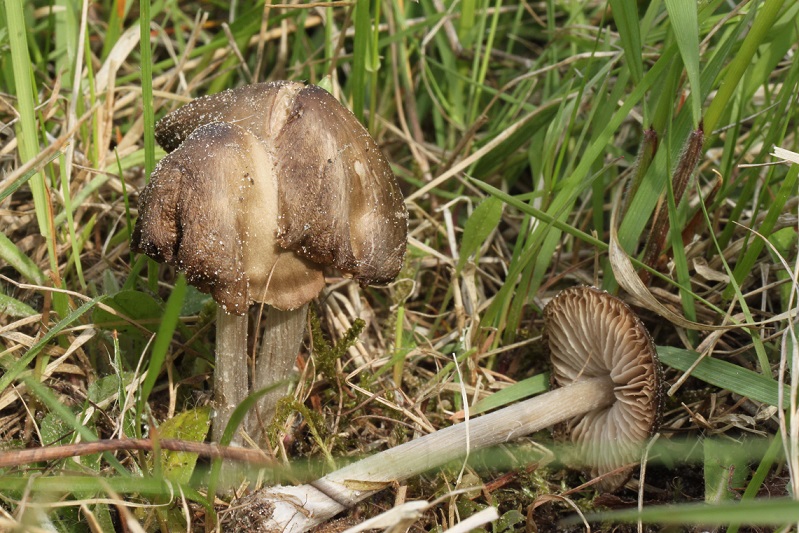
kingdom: Fungi
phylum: Basidiomycota
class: Agaricomycetes
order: Agaricales
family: Entolomataceae
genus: Entoloma
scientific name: Entoloma conferendum
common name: stjernesporet rødblad
